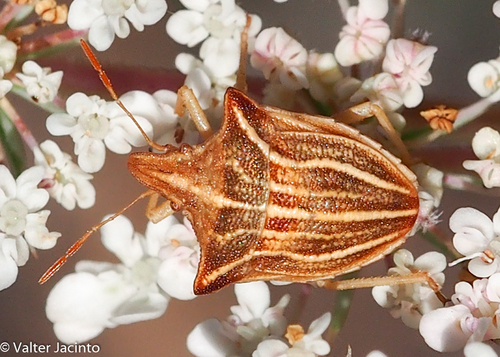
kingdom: Animalia
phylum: Arthropoda
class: Insecta
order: Hemiptera
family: Pentatomidae
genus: Ancyrosoma
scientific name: Ancyrosoma leucogrammes
